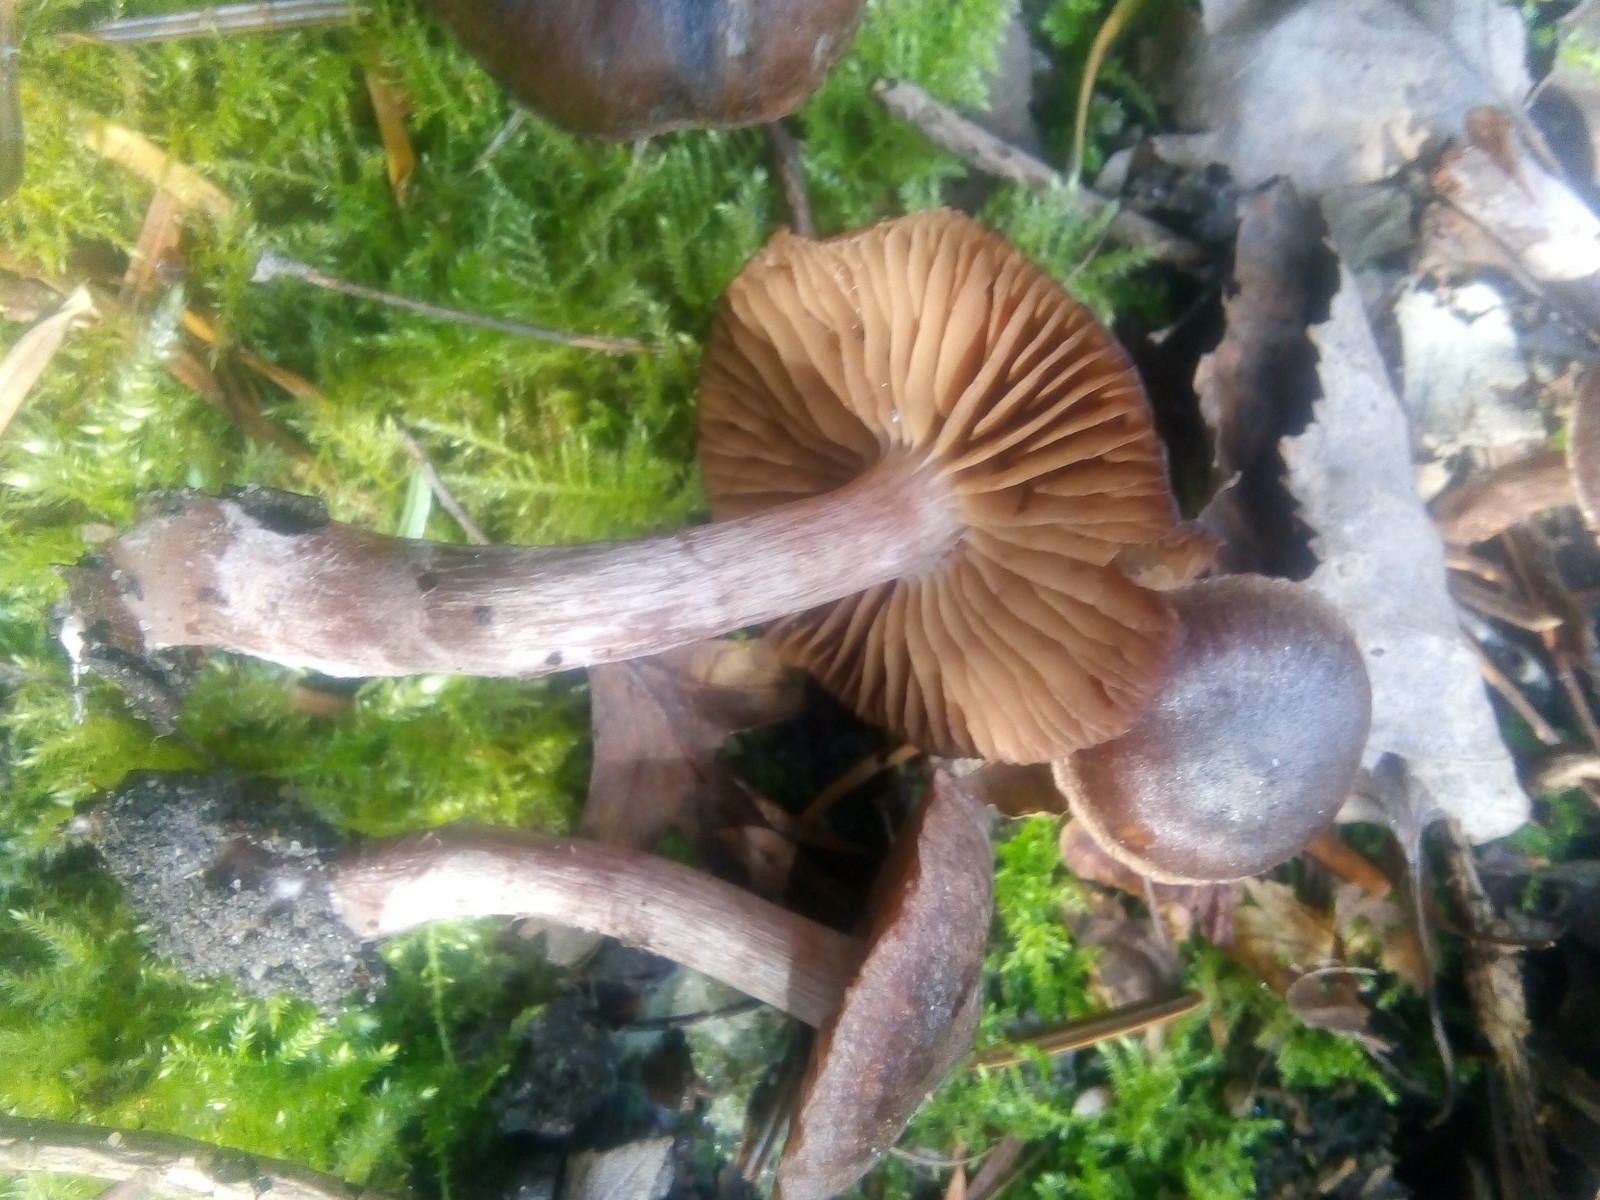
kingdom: Fungi
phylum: Basidiomycota
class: Agaricomycetes
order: Agaricales
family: Cortinariaceae
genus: Cortinarius
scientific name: Cortinarius vernus
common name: sommer-slørhat
